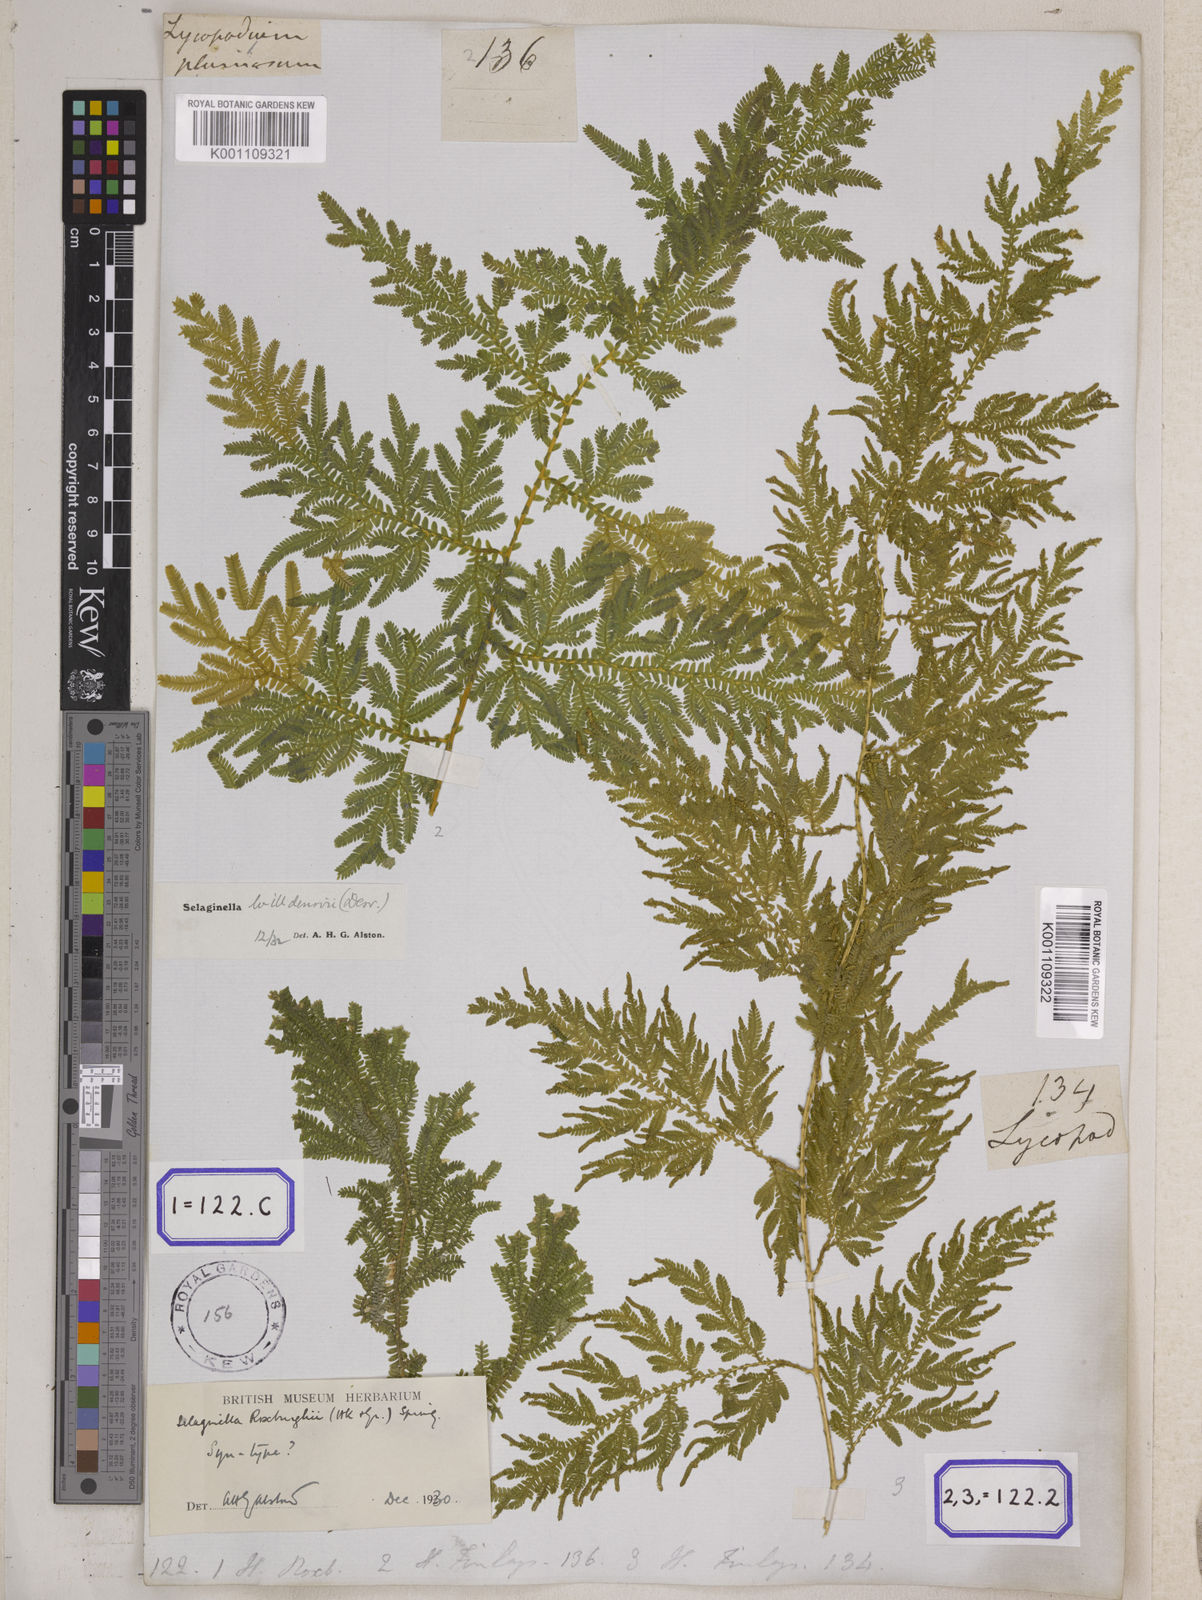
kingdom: Plantae
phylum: Tracheophyta
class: Lycopodiopsida
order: Selaginellales
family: Selaginellaceae
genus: Selaginella
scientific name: Selaginella willdenowii
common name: Willdenow's spikemoss
